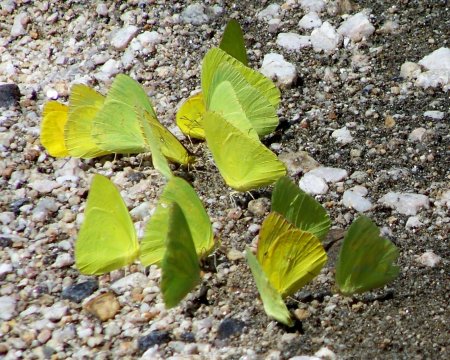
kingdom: Animalia
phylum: Arthropoda
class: Insecta
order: Lepidoptera
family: Pieridae
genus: Phoebis
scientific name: Phoebis sennae
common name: Cloudless Sulphur
